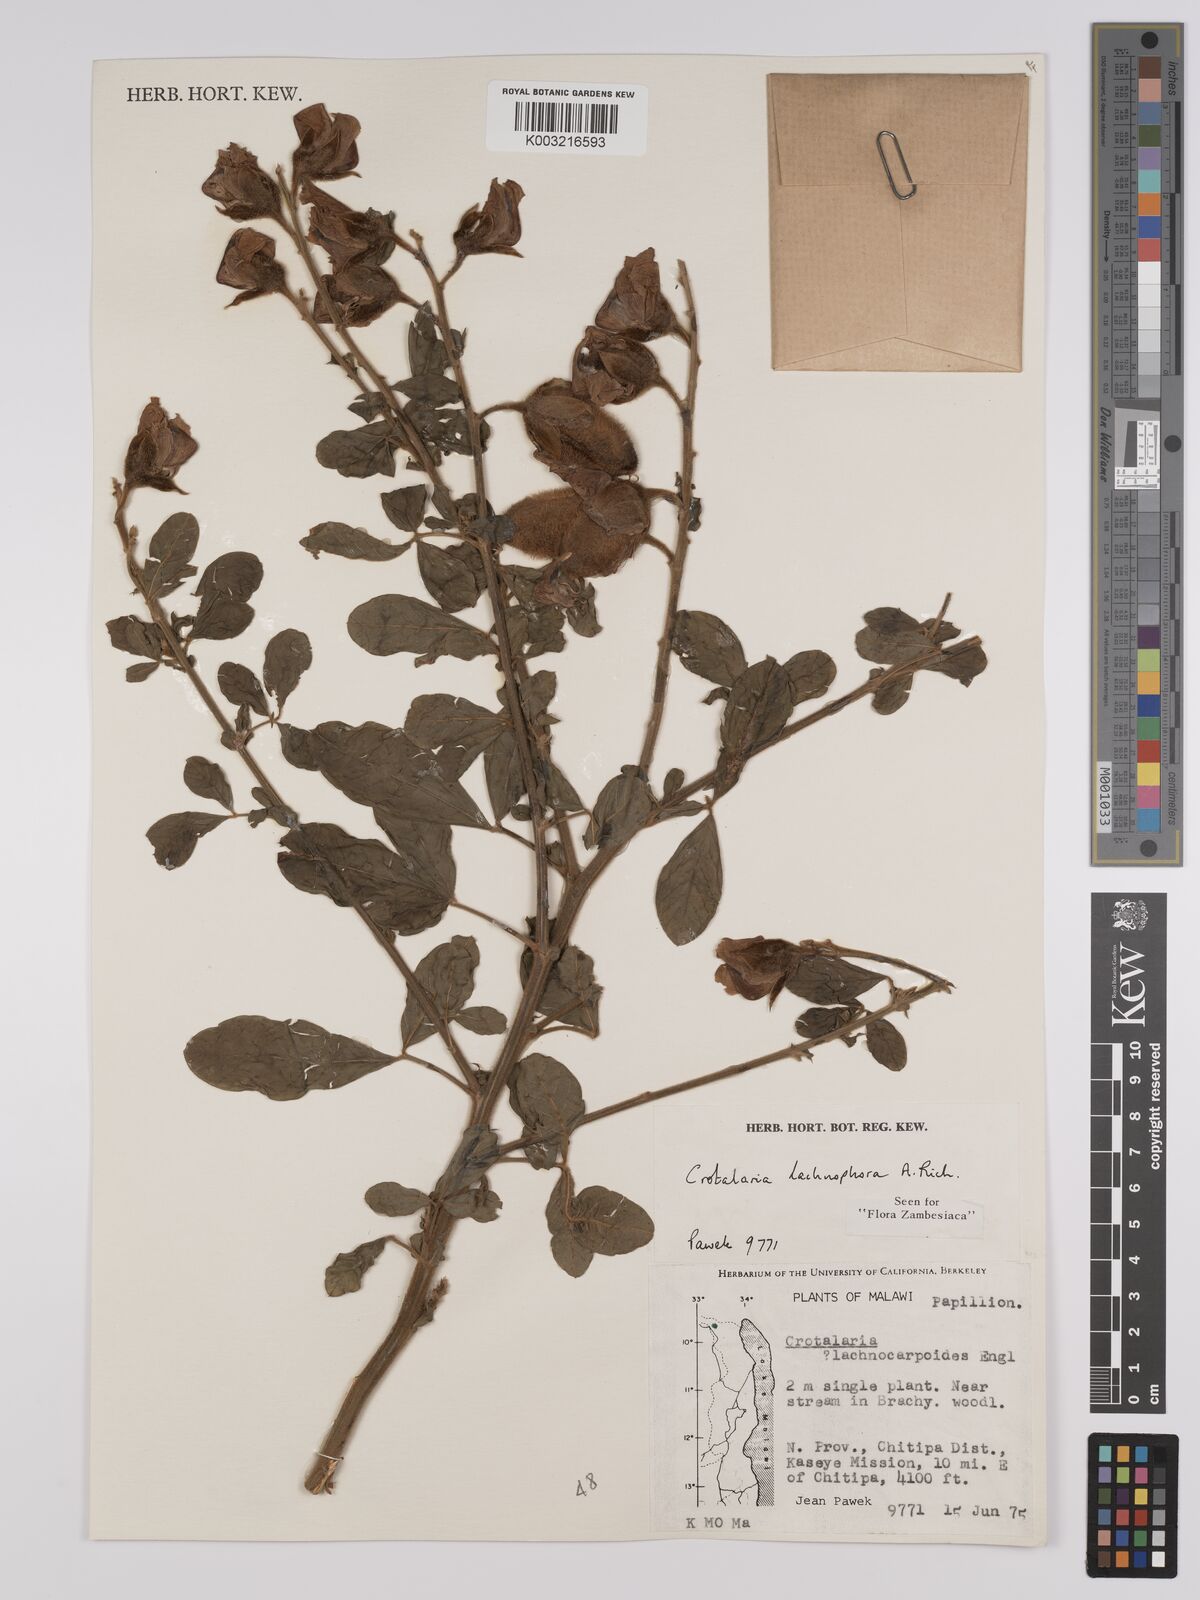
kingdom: Plantae
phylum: Tracheophyta
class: Magnoliopsida
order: Fabales
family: Fabaceae
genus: Crotalaria
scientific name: Crotalaria lachnophora
